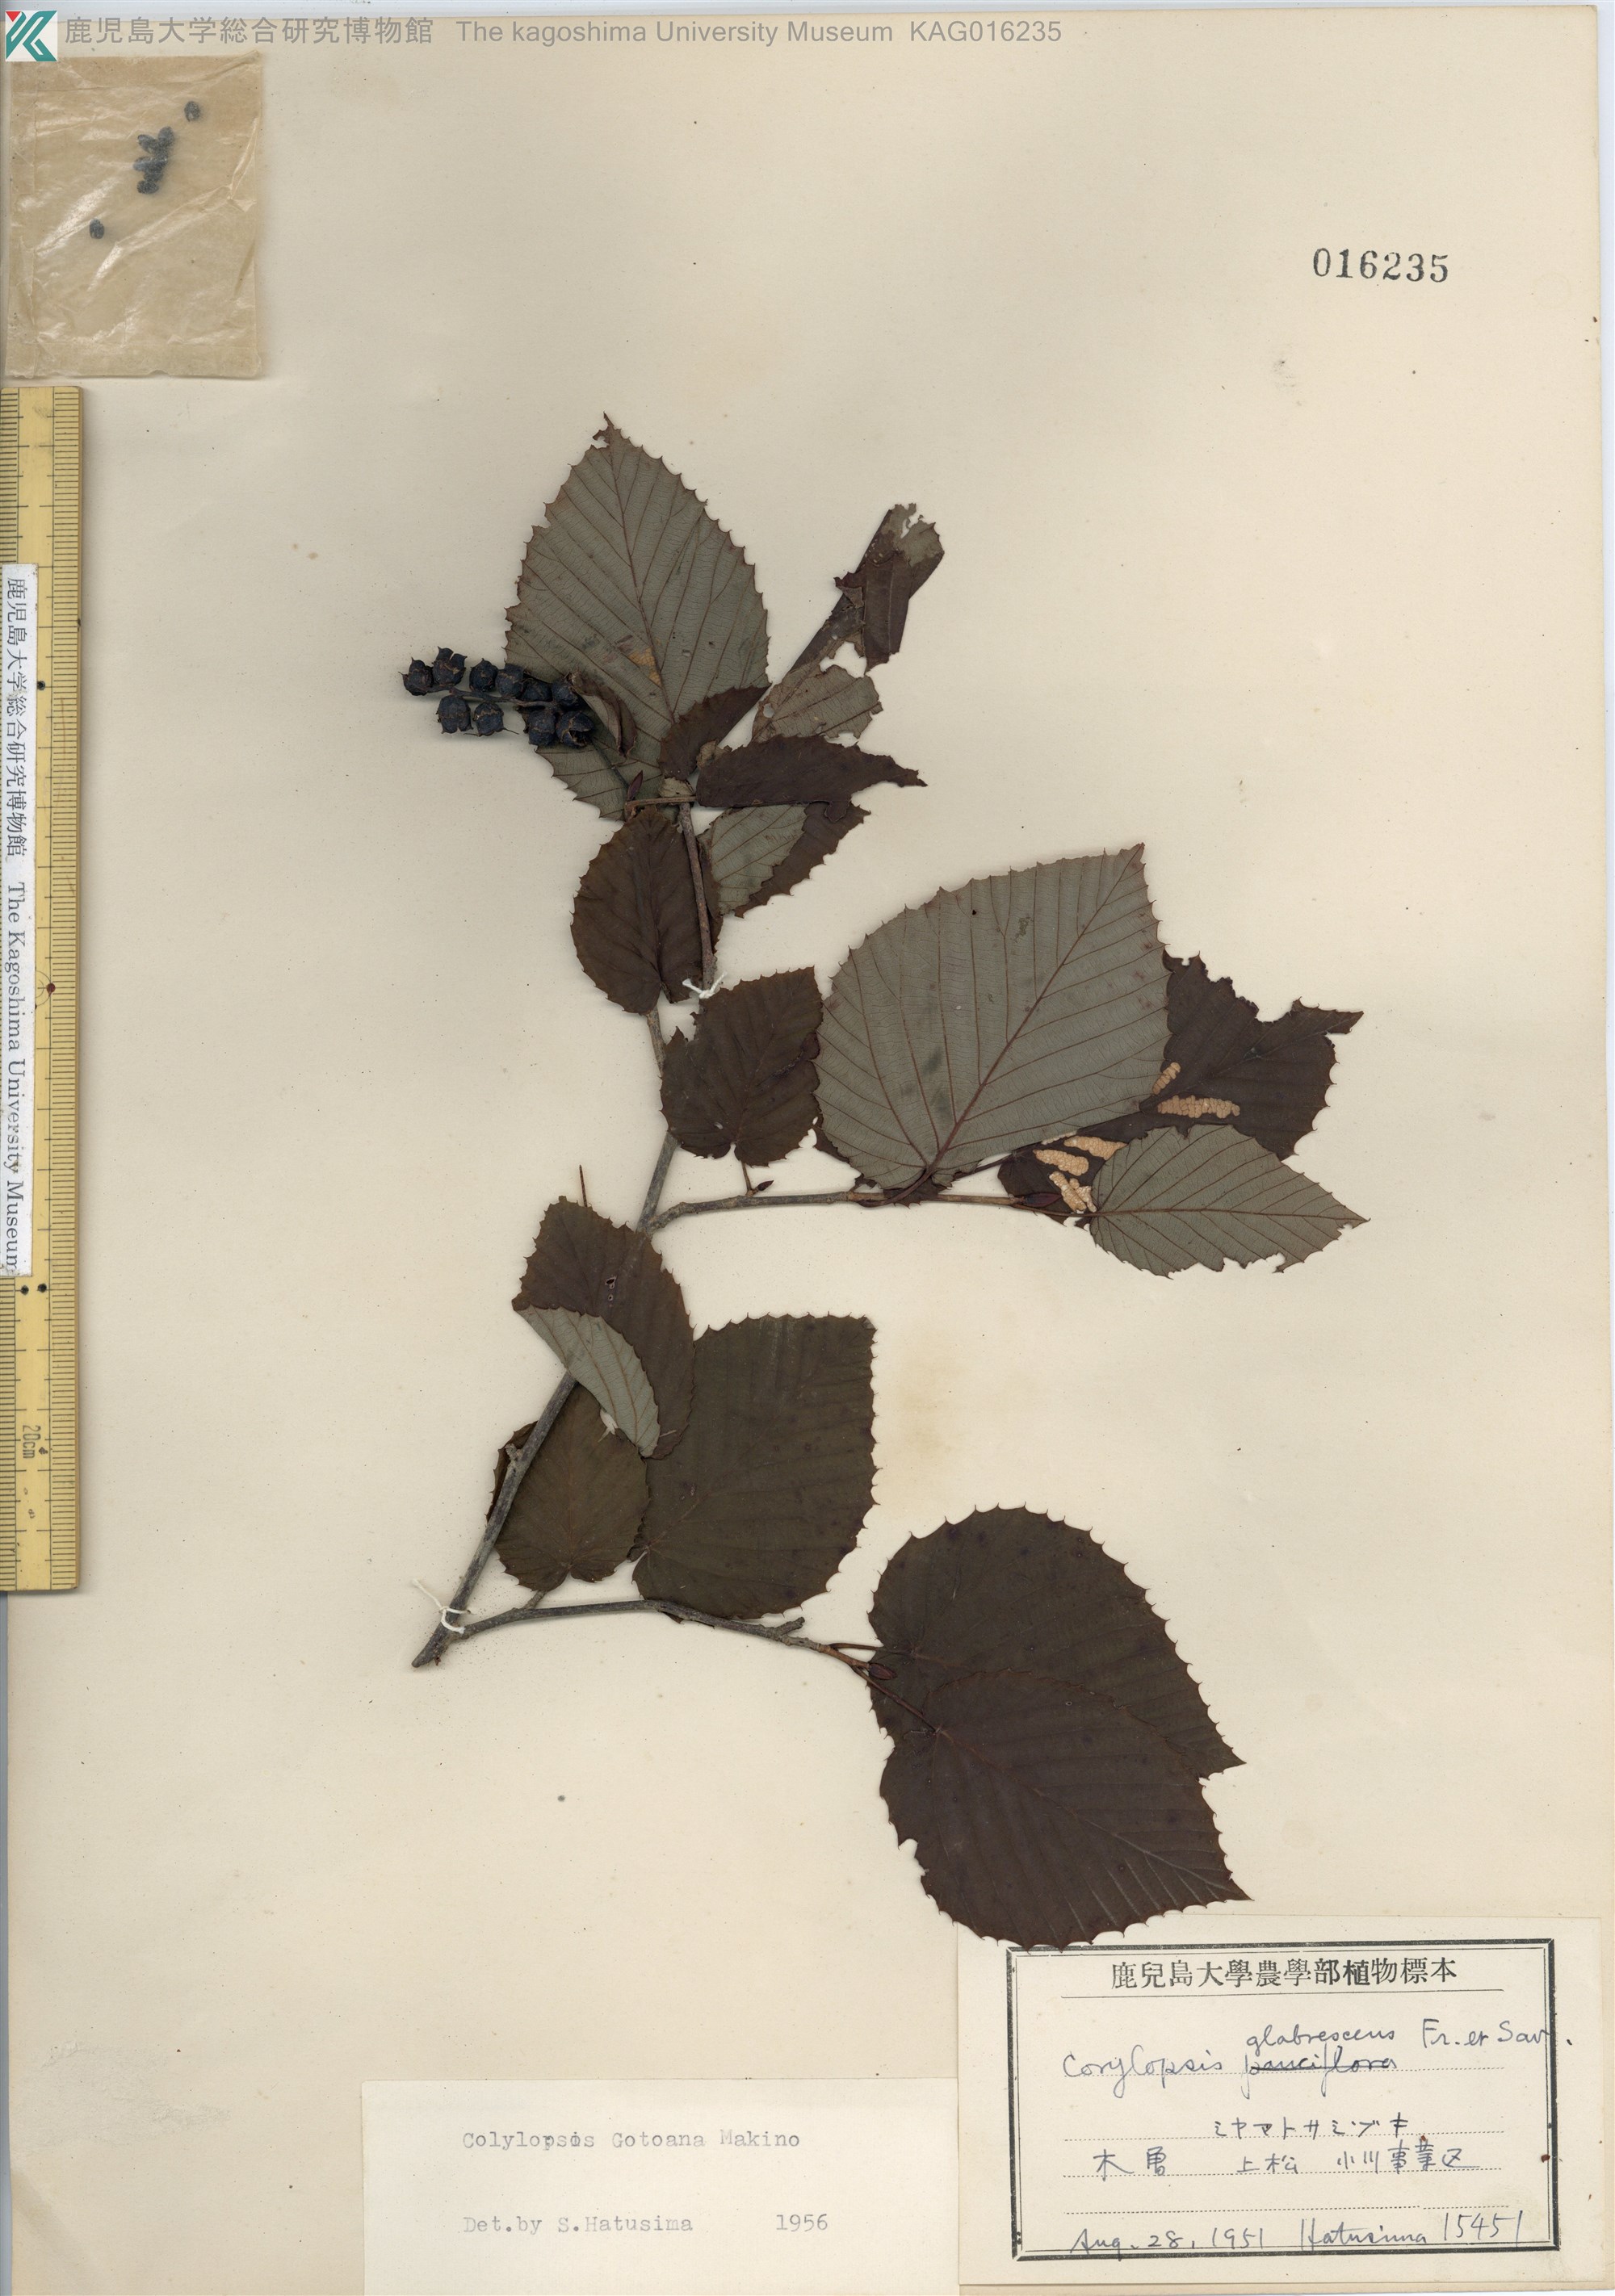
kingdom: Plantae
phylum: Tracheophyta
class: Magnoliopsida
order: Saxifragales
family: Hamamelidaceae
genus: Corylopsis
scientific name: Corylopsis gotoana
